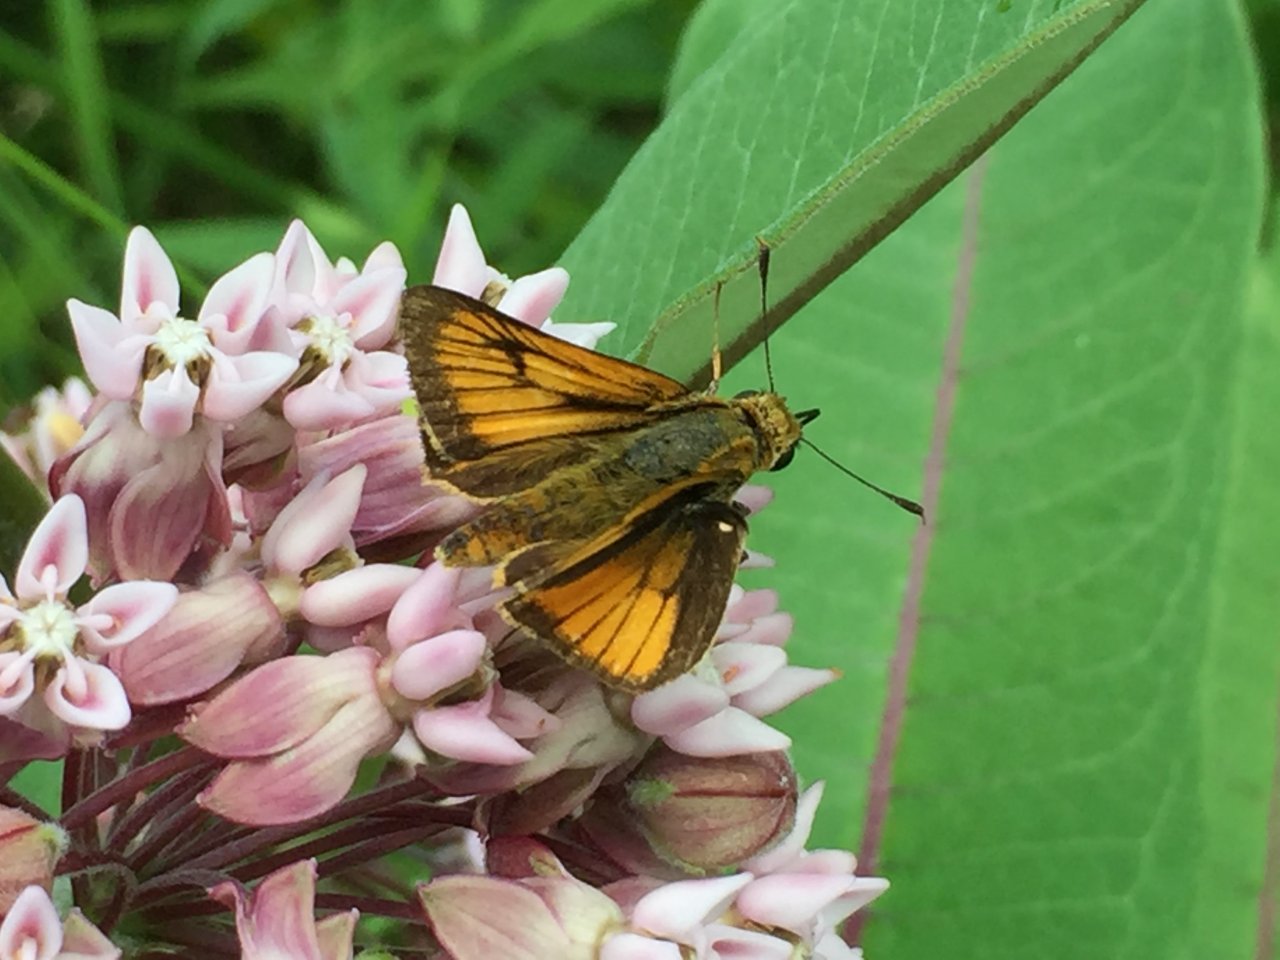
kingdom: Animalia
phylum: Arthropoda
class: Insecta
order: Lepidoptera
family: Hesperiidae
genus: Atrytone
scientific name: Atrytone delaware
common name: Delaware Skipper
